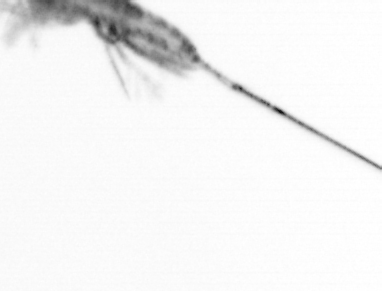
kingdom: Animalia
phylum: Arthropoda
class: Copepoda
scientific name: Copepoda
